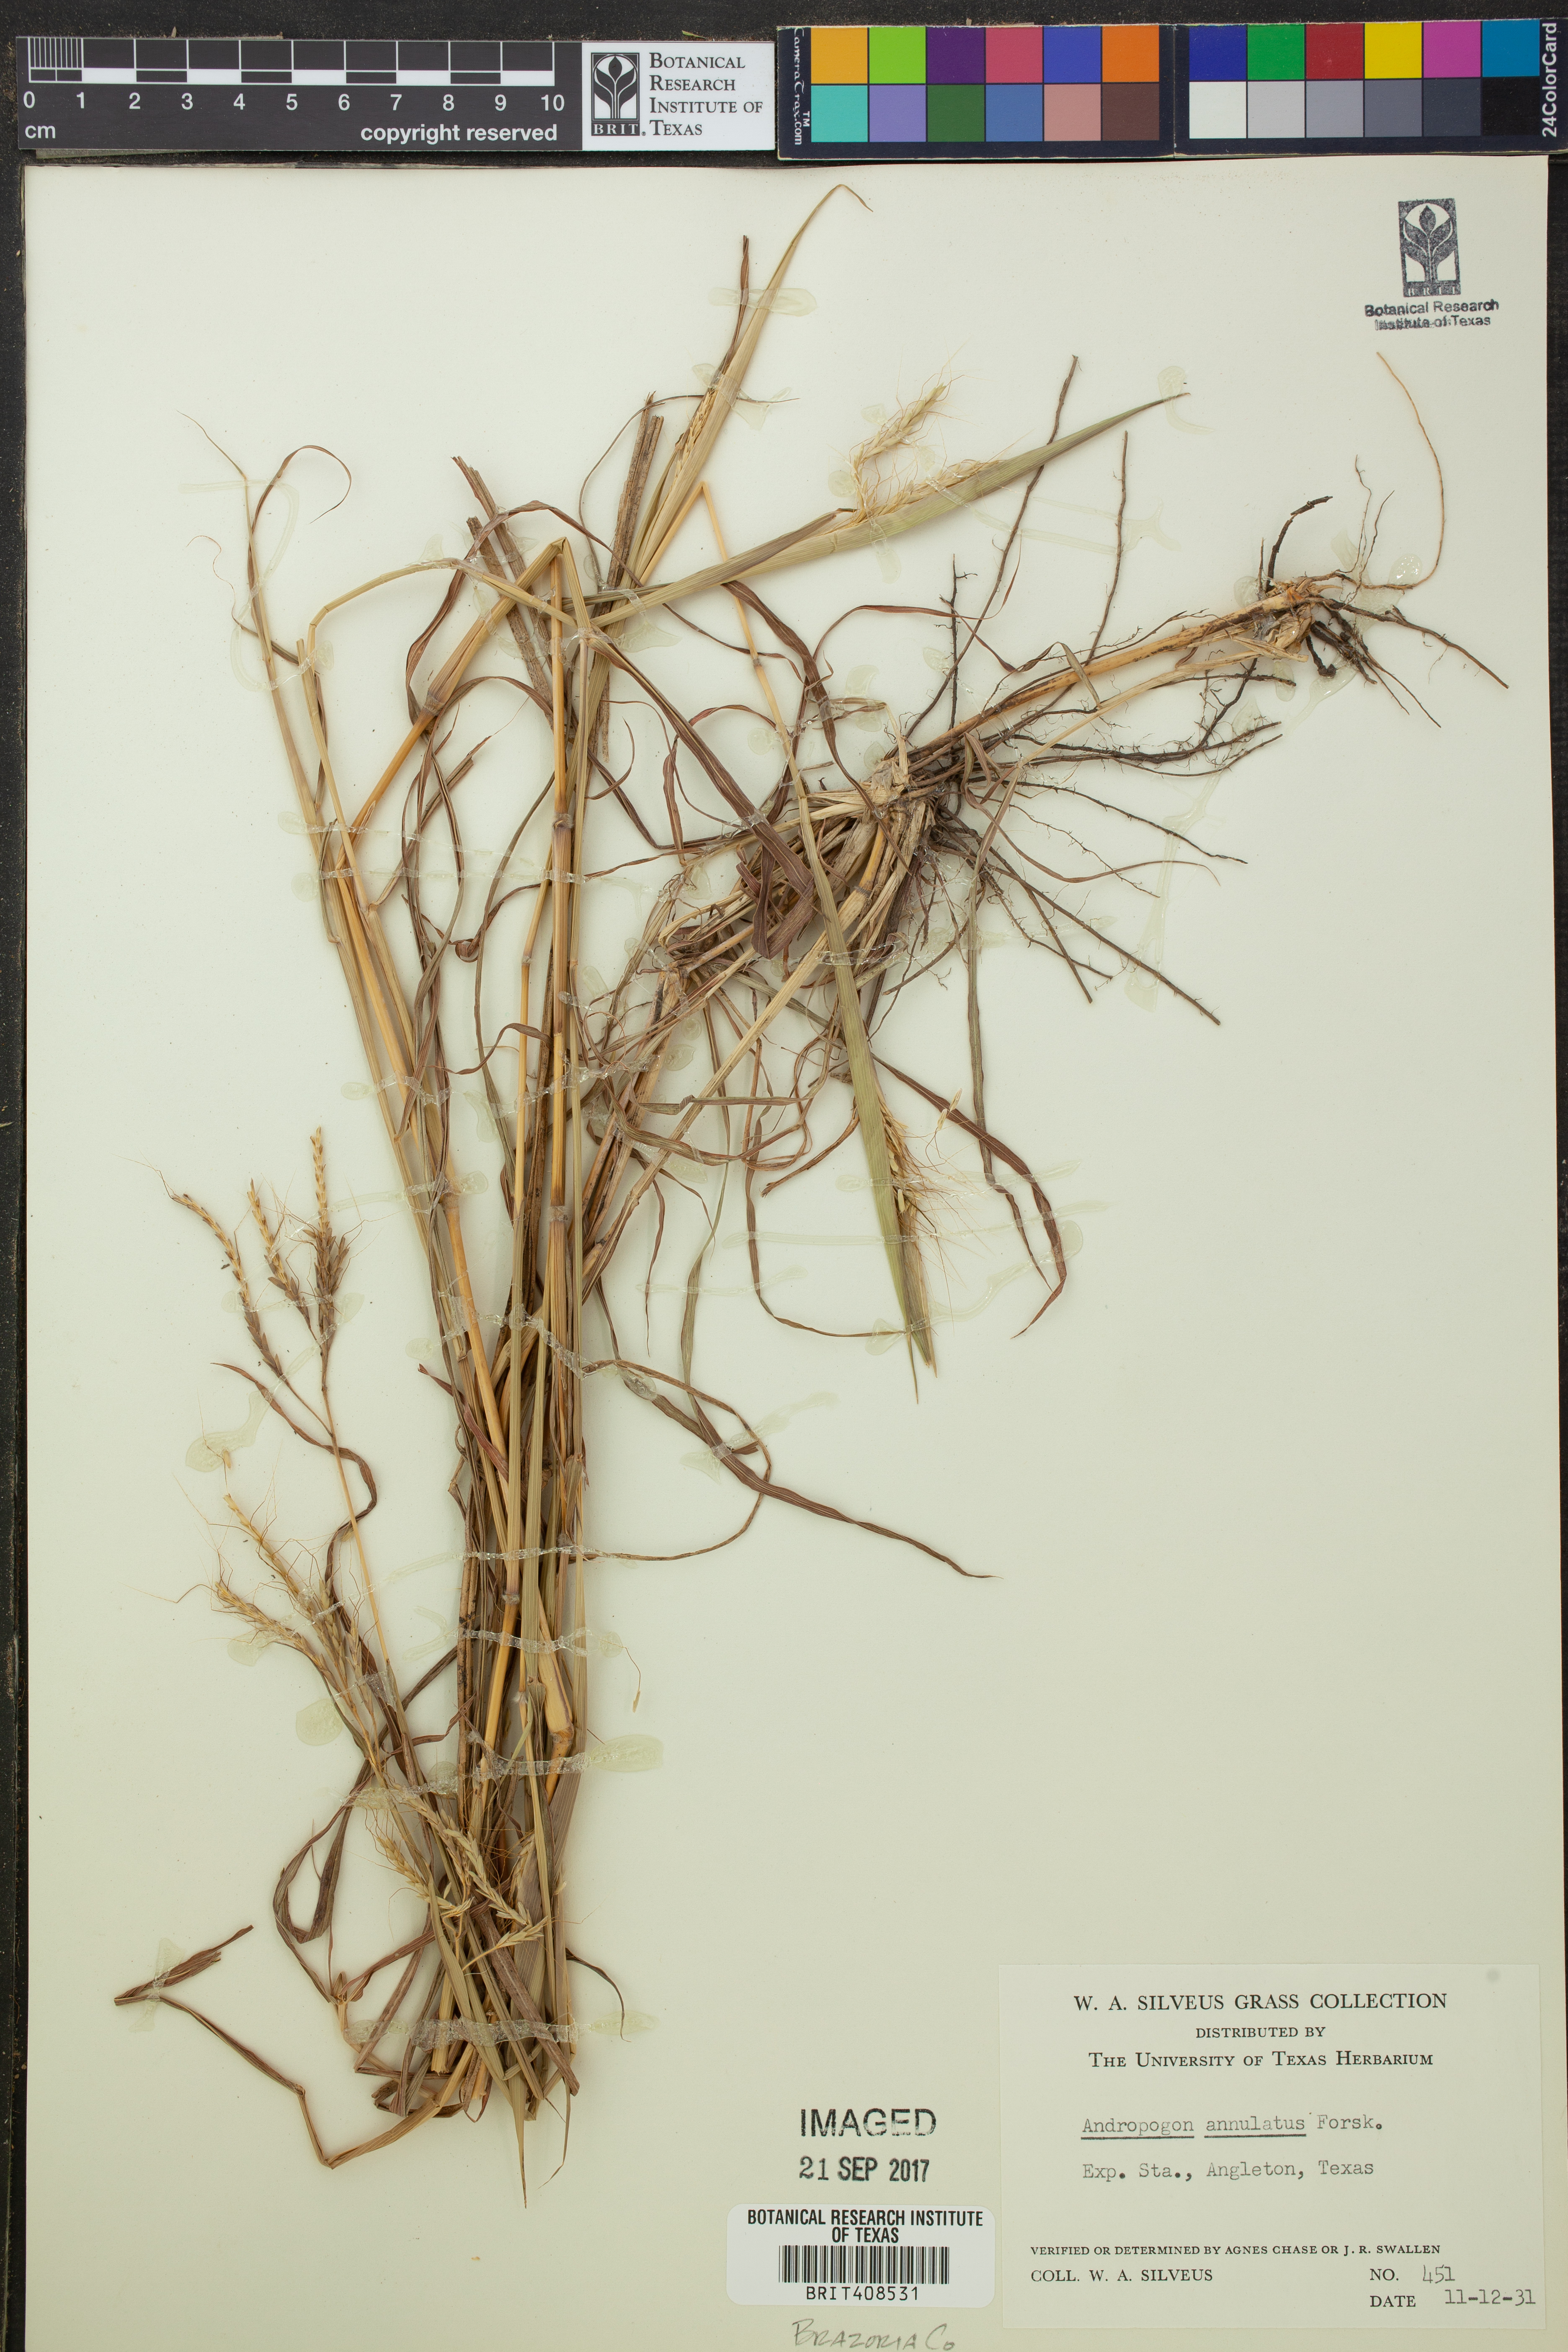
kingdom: Plantae
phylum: Tracheophyta
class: Liliopsida
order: Poales
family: Poaceae
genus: Dichanthium
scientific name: Dichanthium annulatum
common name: Kleberg's bluestem
